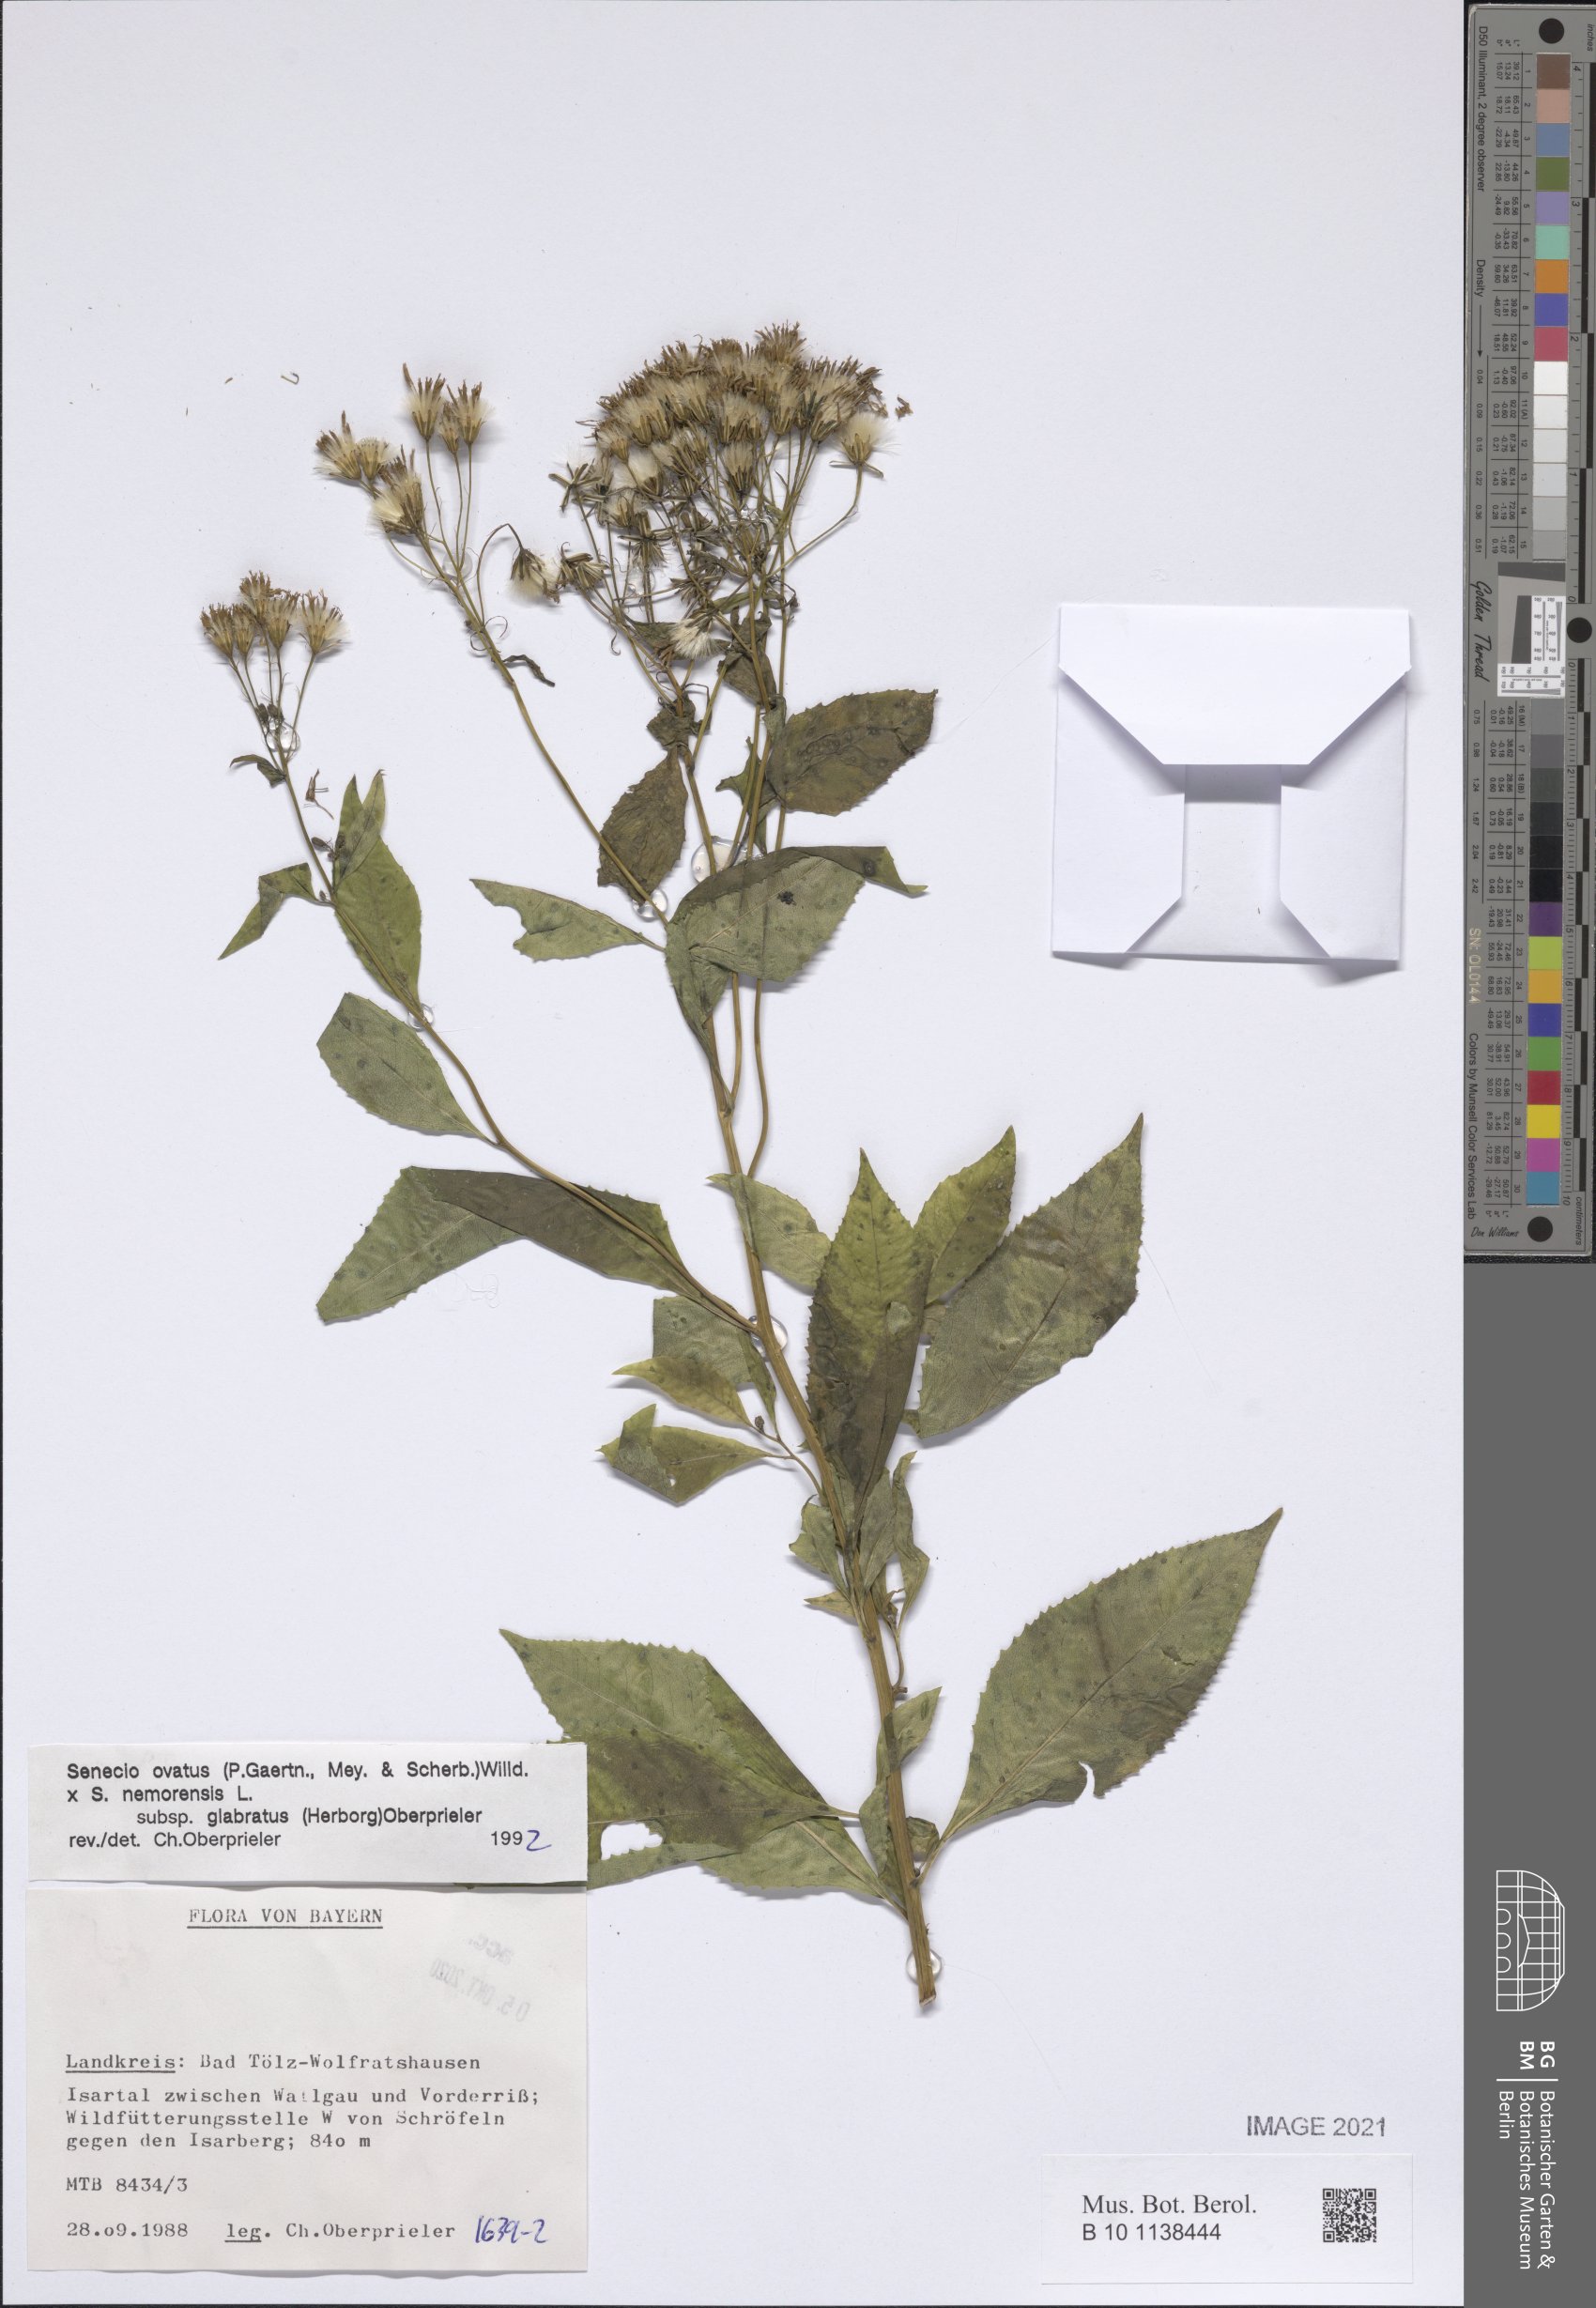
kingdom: Plantae
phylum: Tracheophyta
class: Magnoliopsida
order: Asterales
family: Asteraceae
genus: Senecio
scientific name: Senecio ovatus
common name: Wood ragwort
